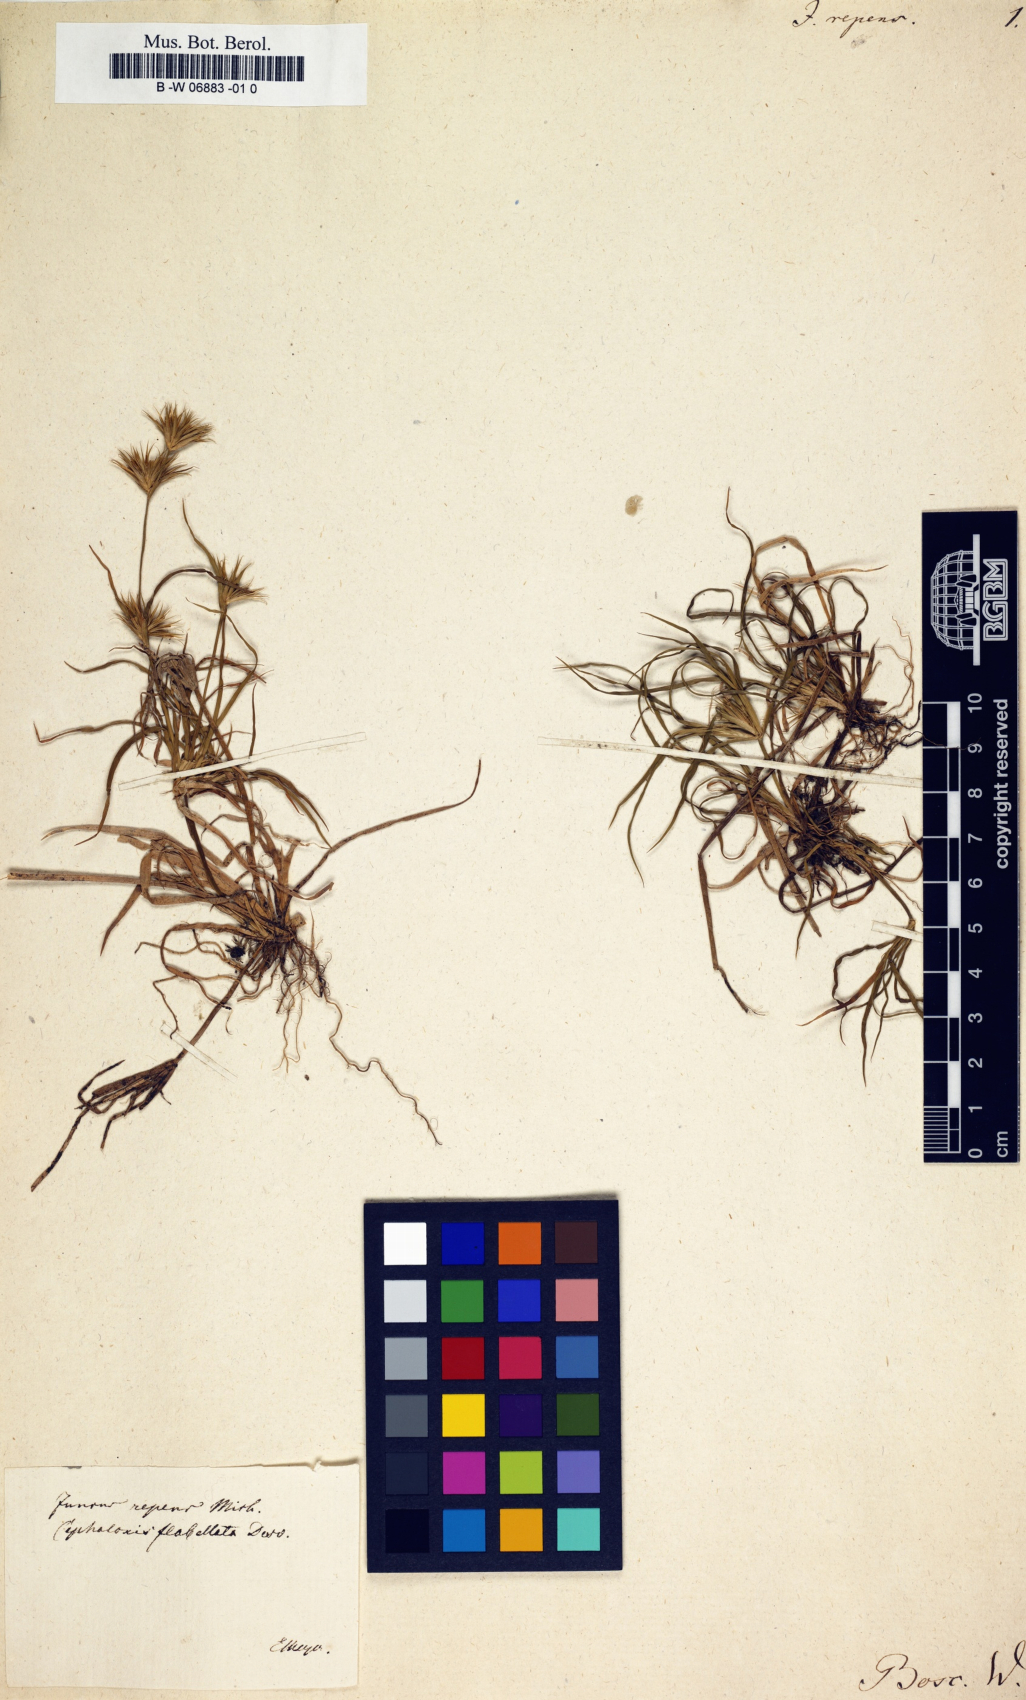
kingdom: Plantae
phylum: Tracheophyta
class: Liliopsida
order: Poales
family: Juncaceae
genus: Juncus
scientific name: Juncus repens
